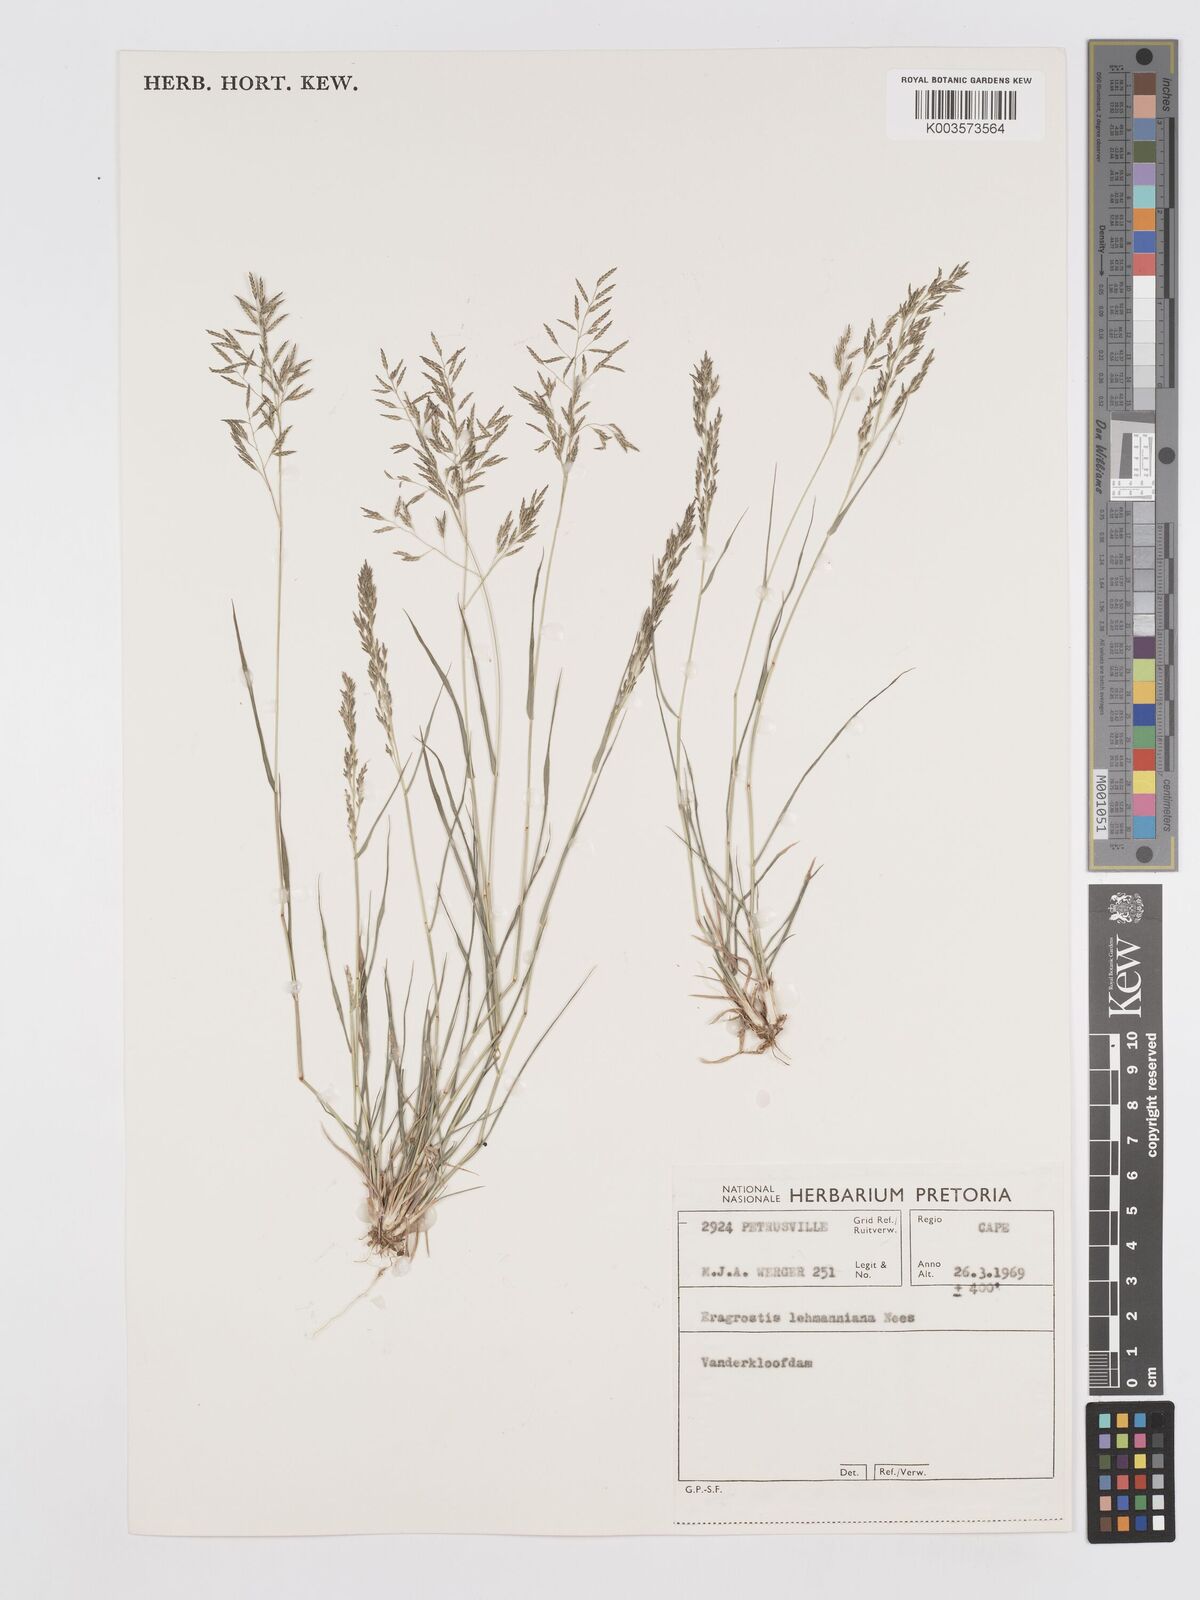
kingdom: Plantae
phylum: Tracheophyta
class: Liliopsida
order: Poales
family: Poaceae
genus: Eragrostis
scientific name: Eragrostis lehmanniana
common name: Lehmann lovegrass
